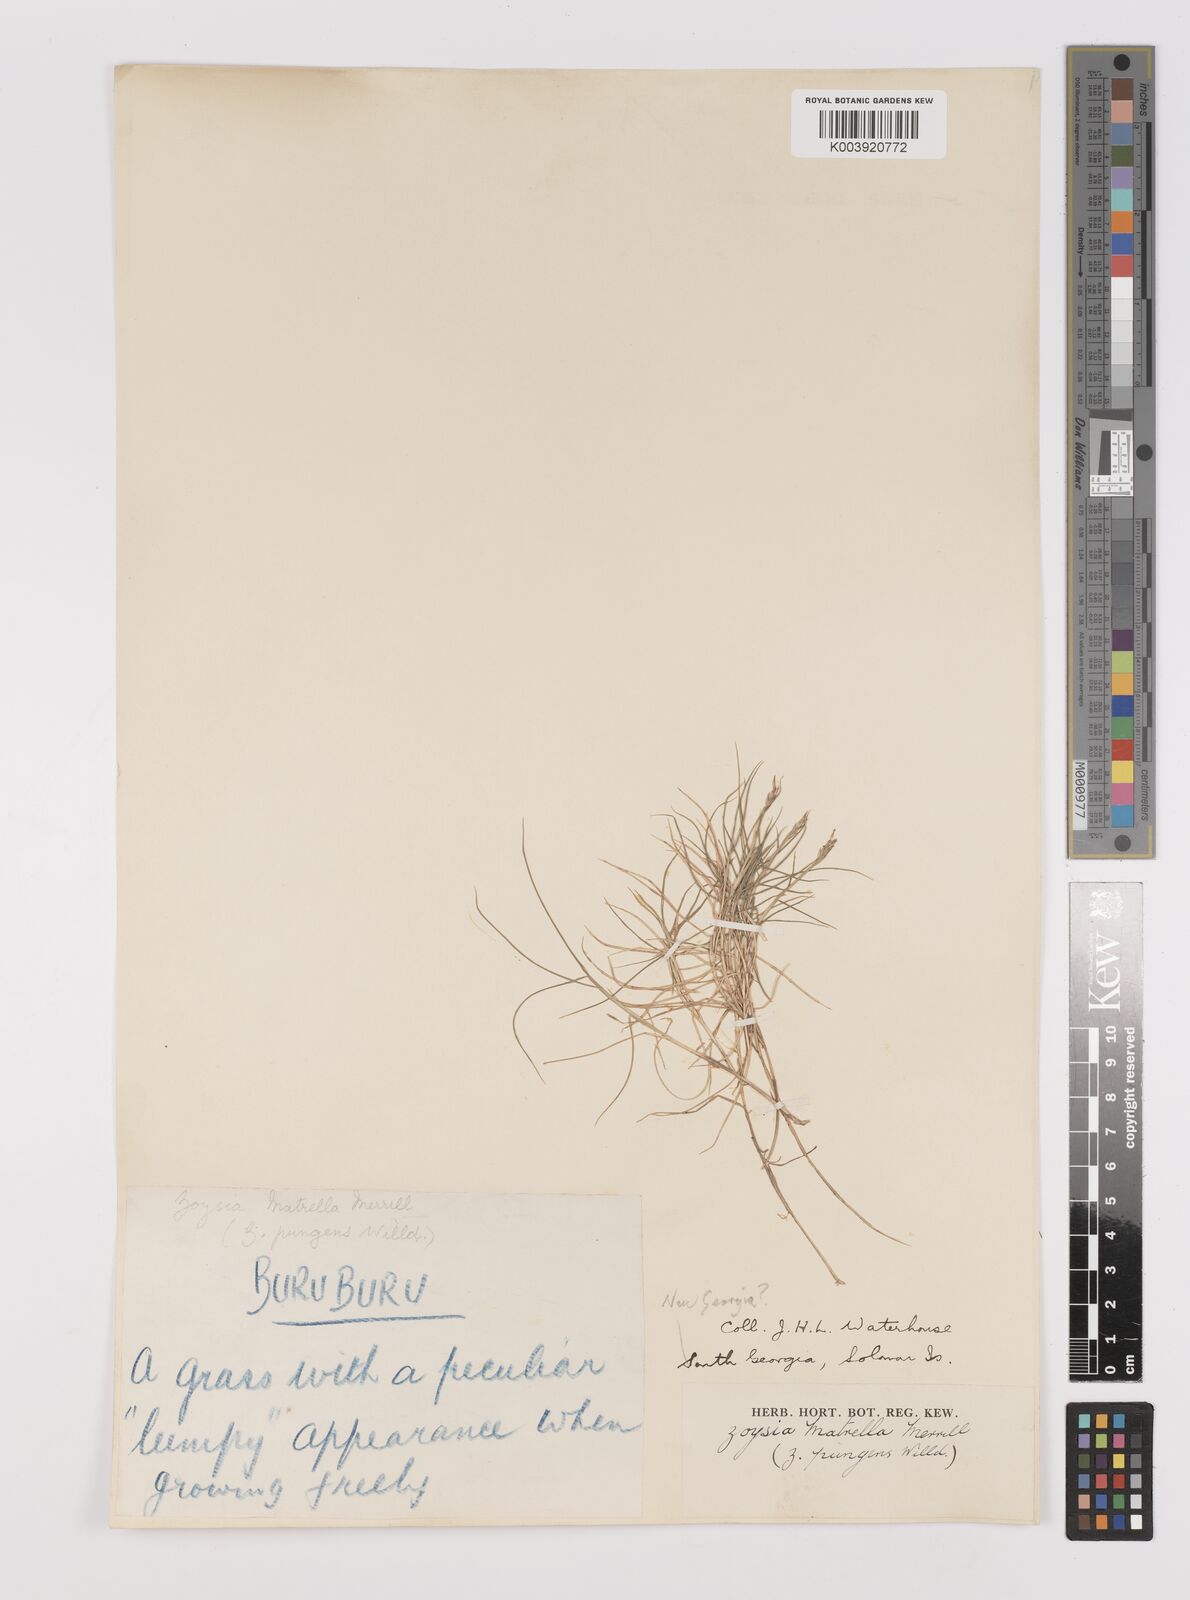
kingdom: Plantae
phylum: Tracheophyta
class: Liliopsida
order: Poales
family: Poaceae
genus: Zoysia
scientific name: Zoysia matrella
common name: Manila grass
